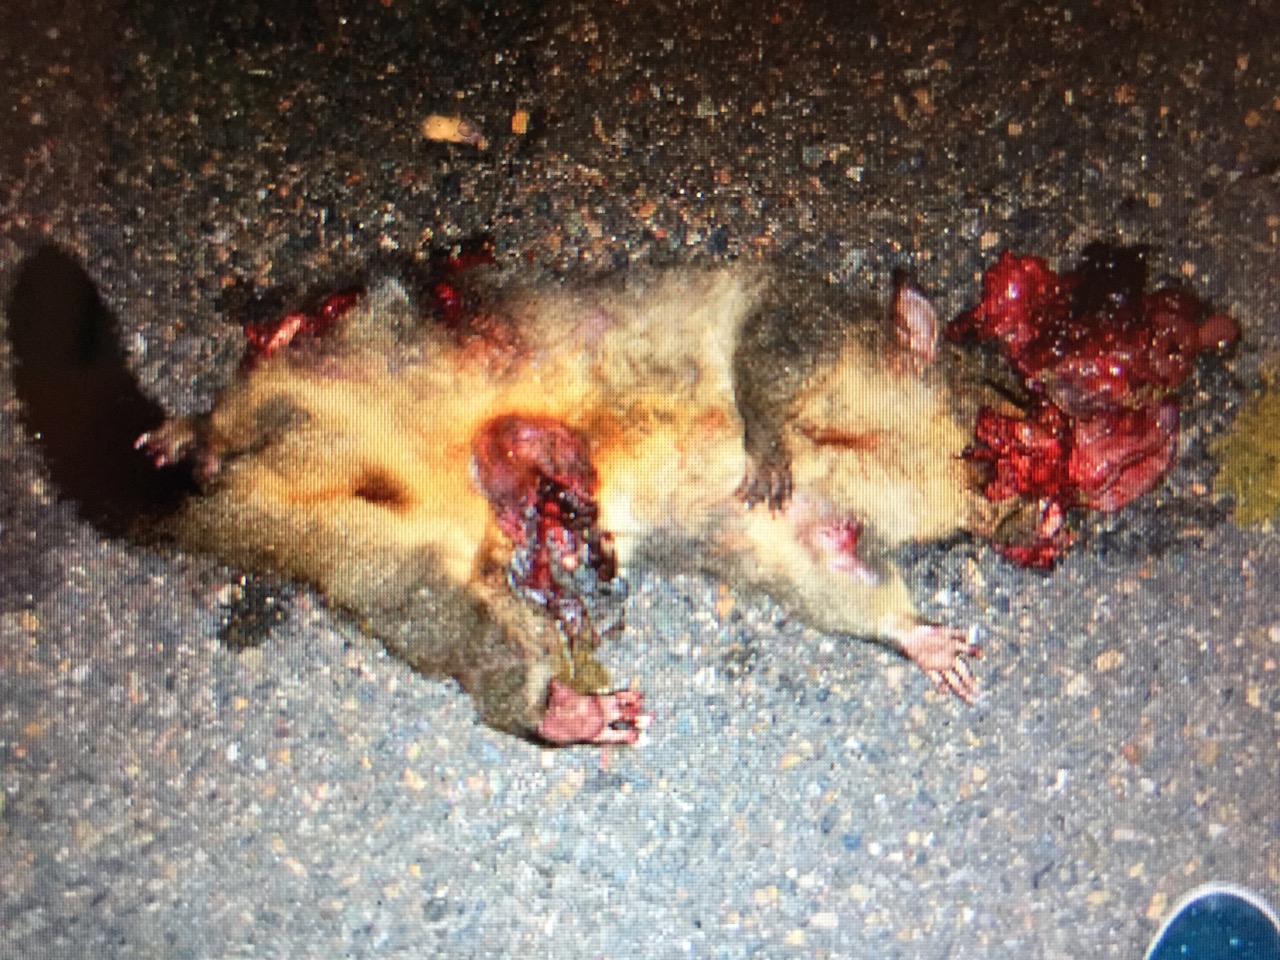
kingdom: Animalia
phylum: Chordata
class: Mammalia
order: Diprotodontia
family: Phalangeridae
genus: Trichosurus
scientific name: Trichosurus vulpecula
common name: Common brushtail
